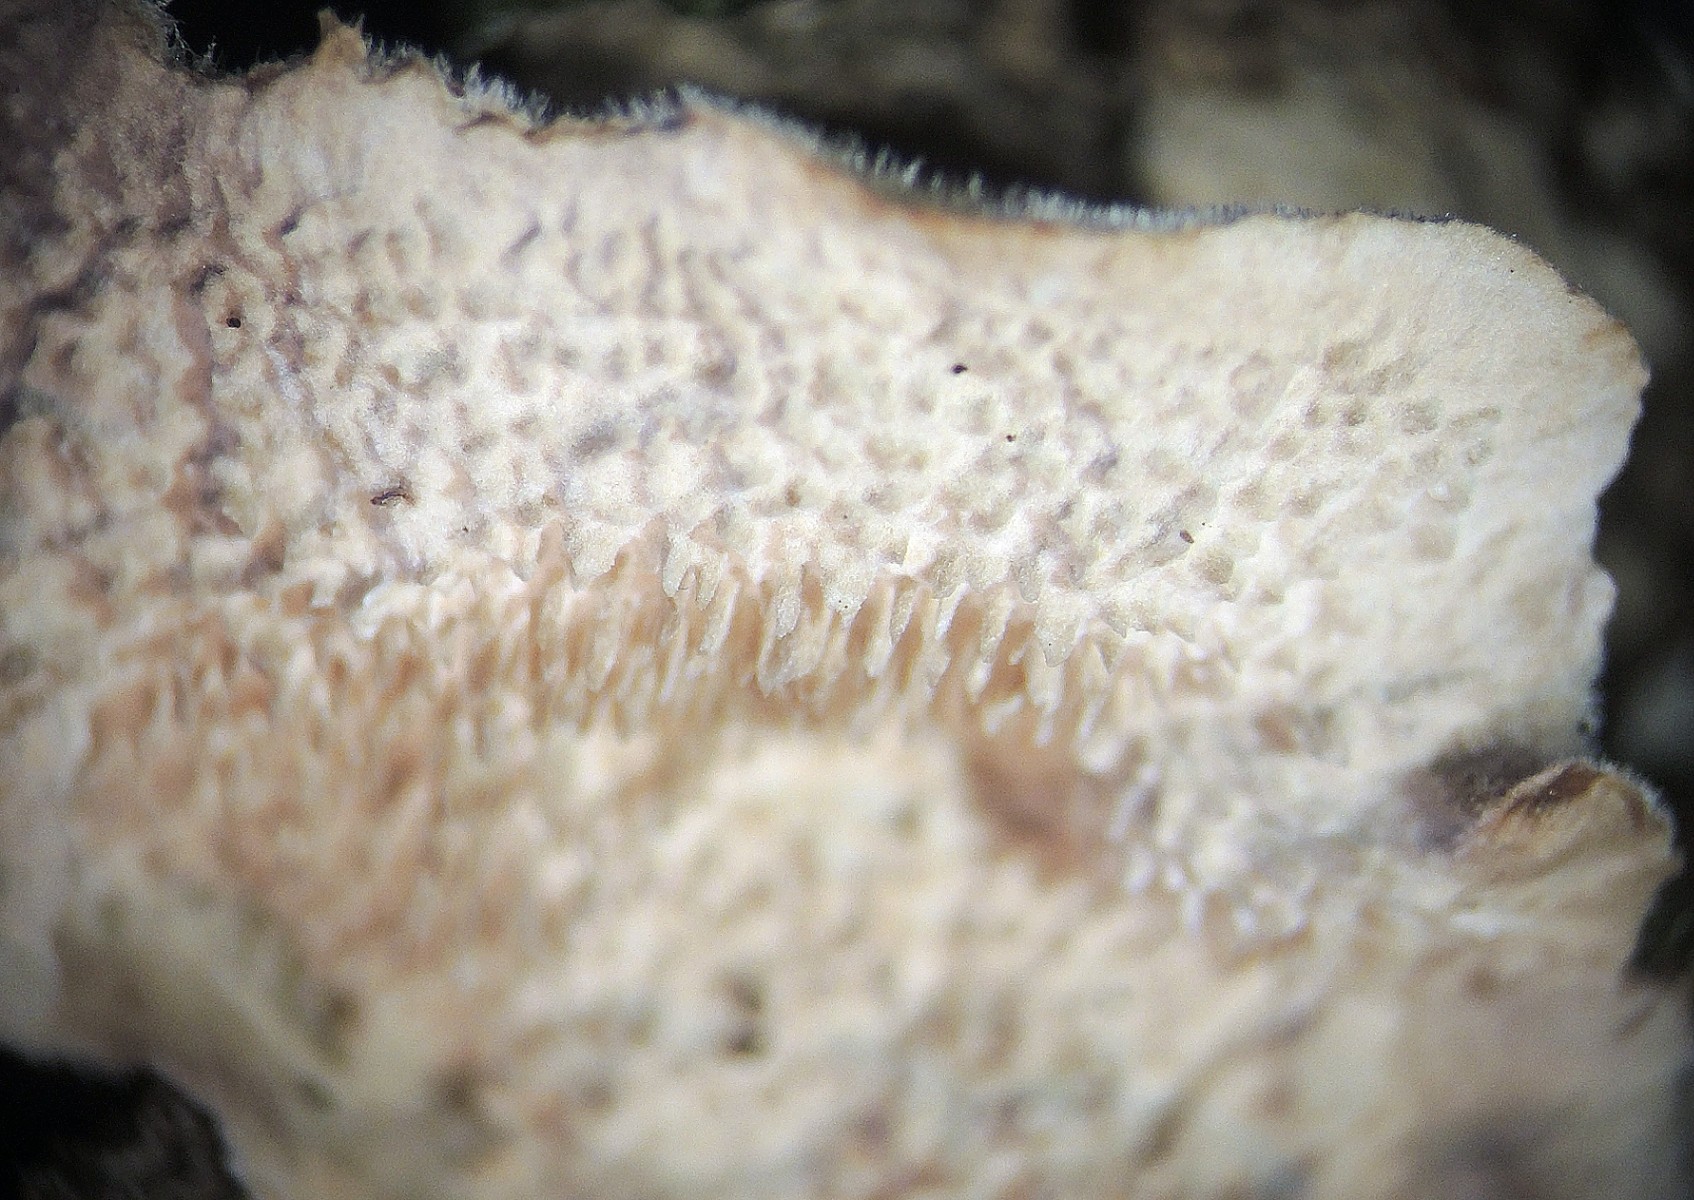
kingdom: Fungi
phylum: Basidiomycota
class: Agaricomycetes
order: Polyporales
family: Cerrenaceae
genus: Cerrena
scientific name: Cerrena unicolor
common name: ensfarvet læderporesvamp
